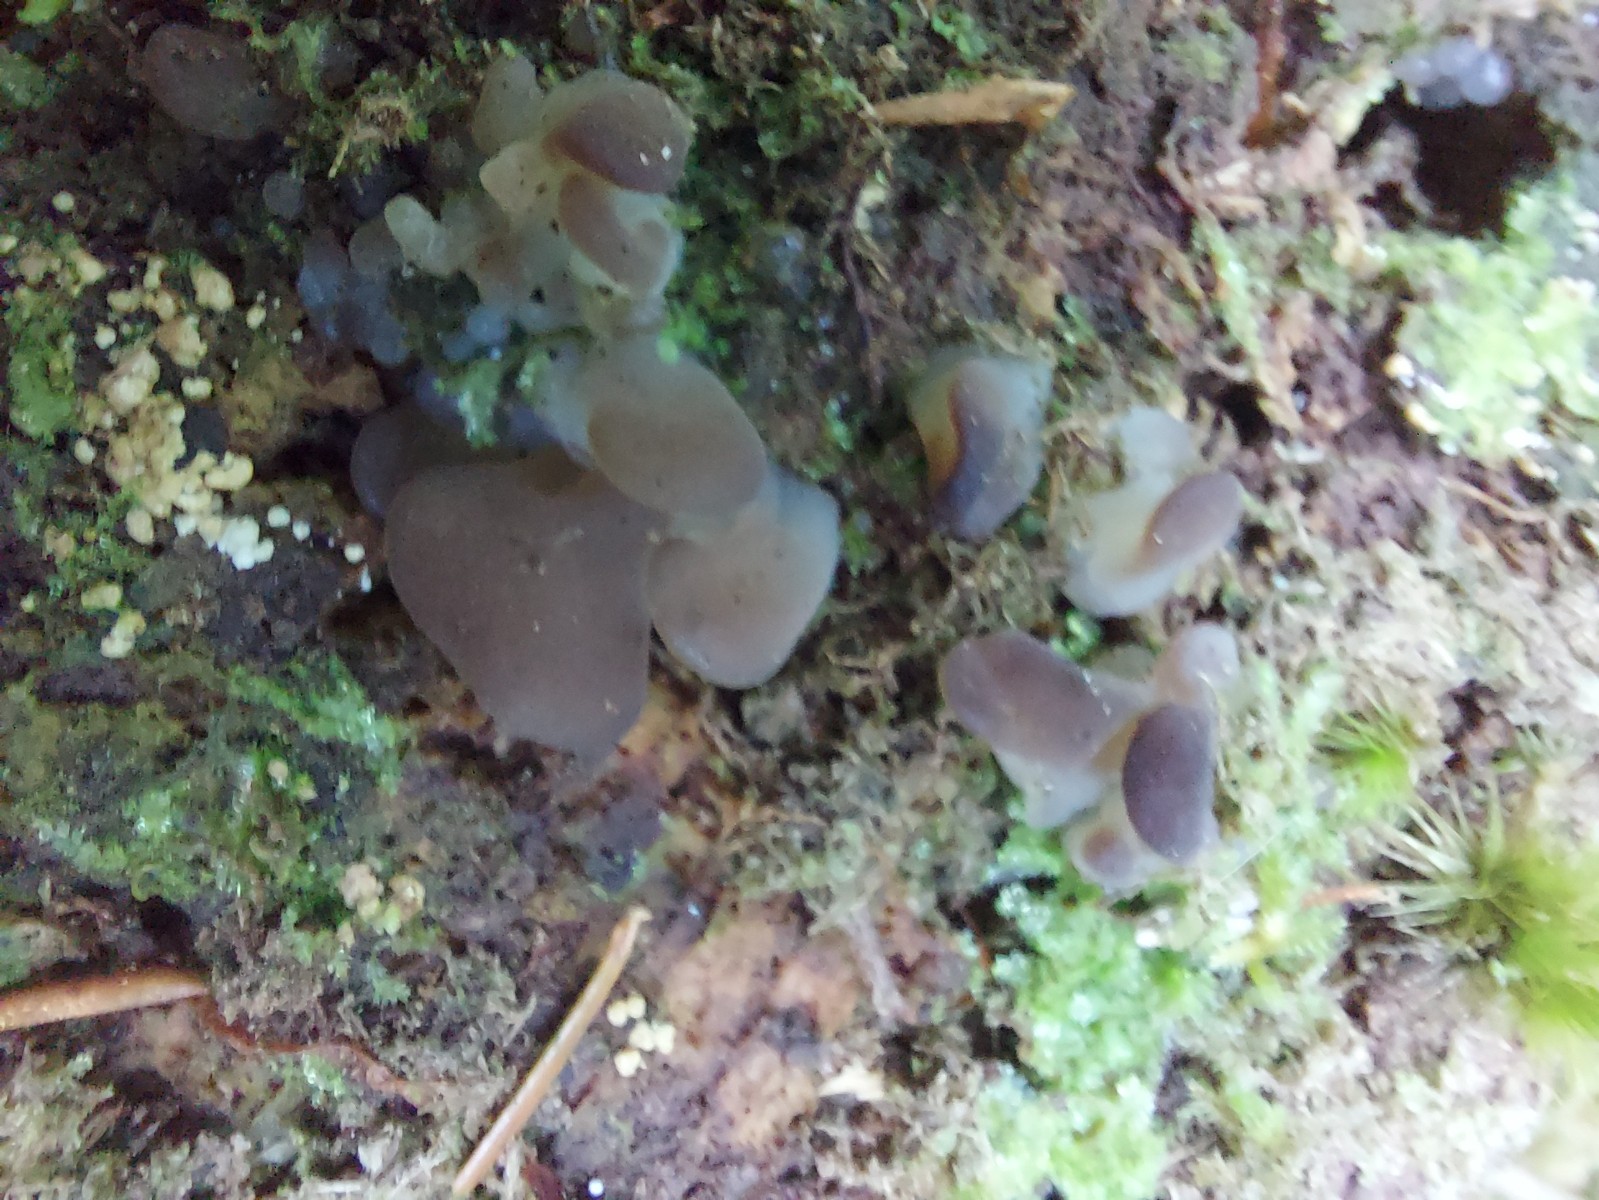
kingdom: Fungi
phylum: Basidiomycota
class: Agaricomycetes
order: Auriculariales
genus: Pseudohydnum
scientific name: Pseudohydnum gelatinosum
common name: bævretand
